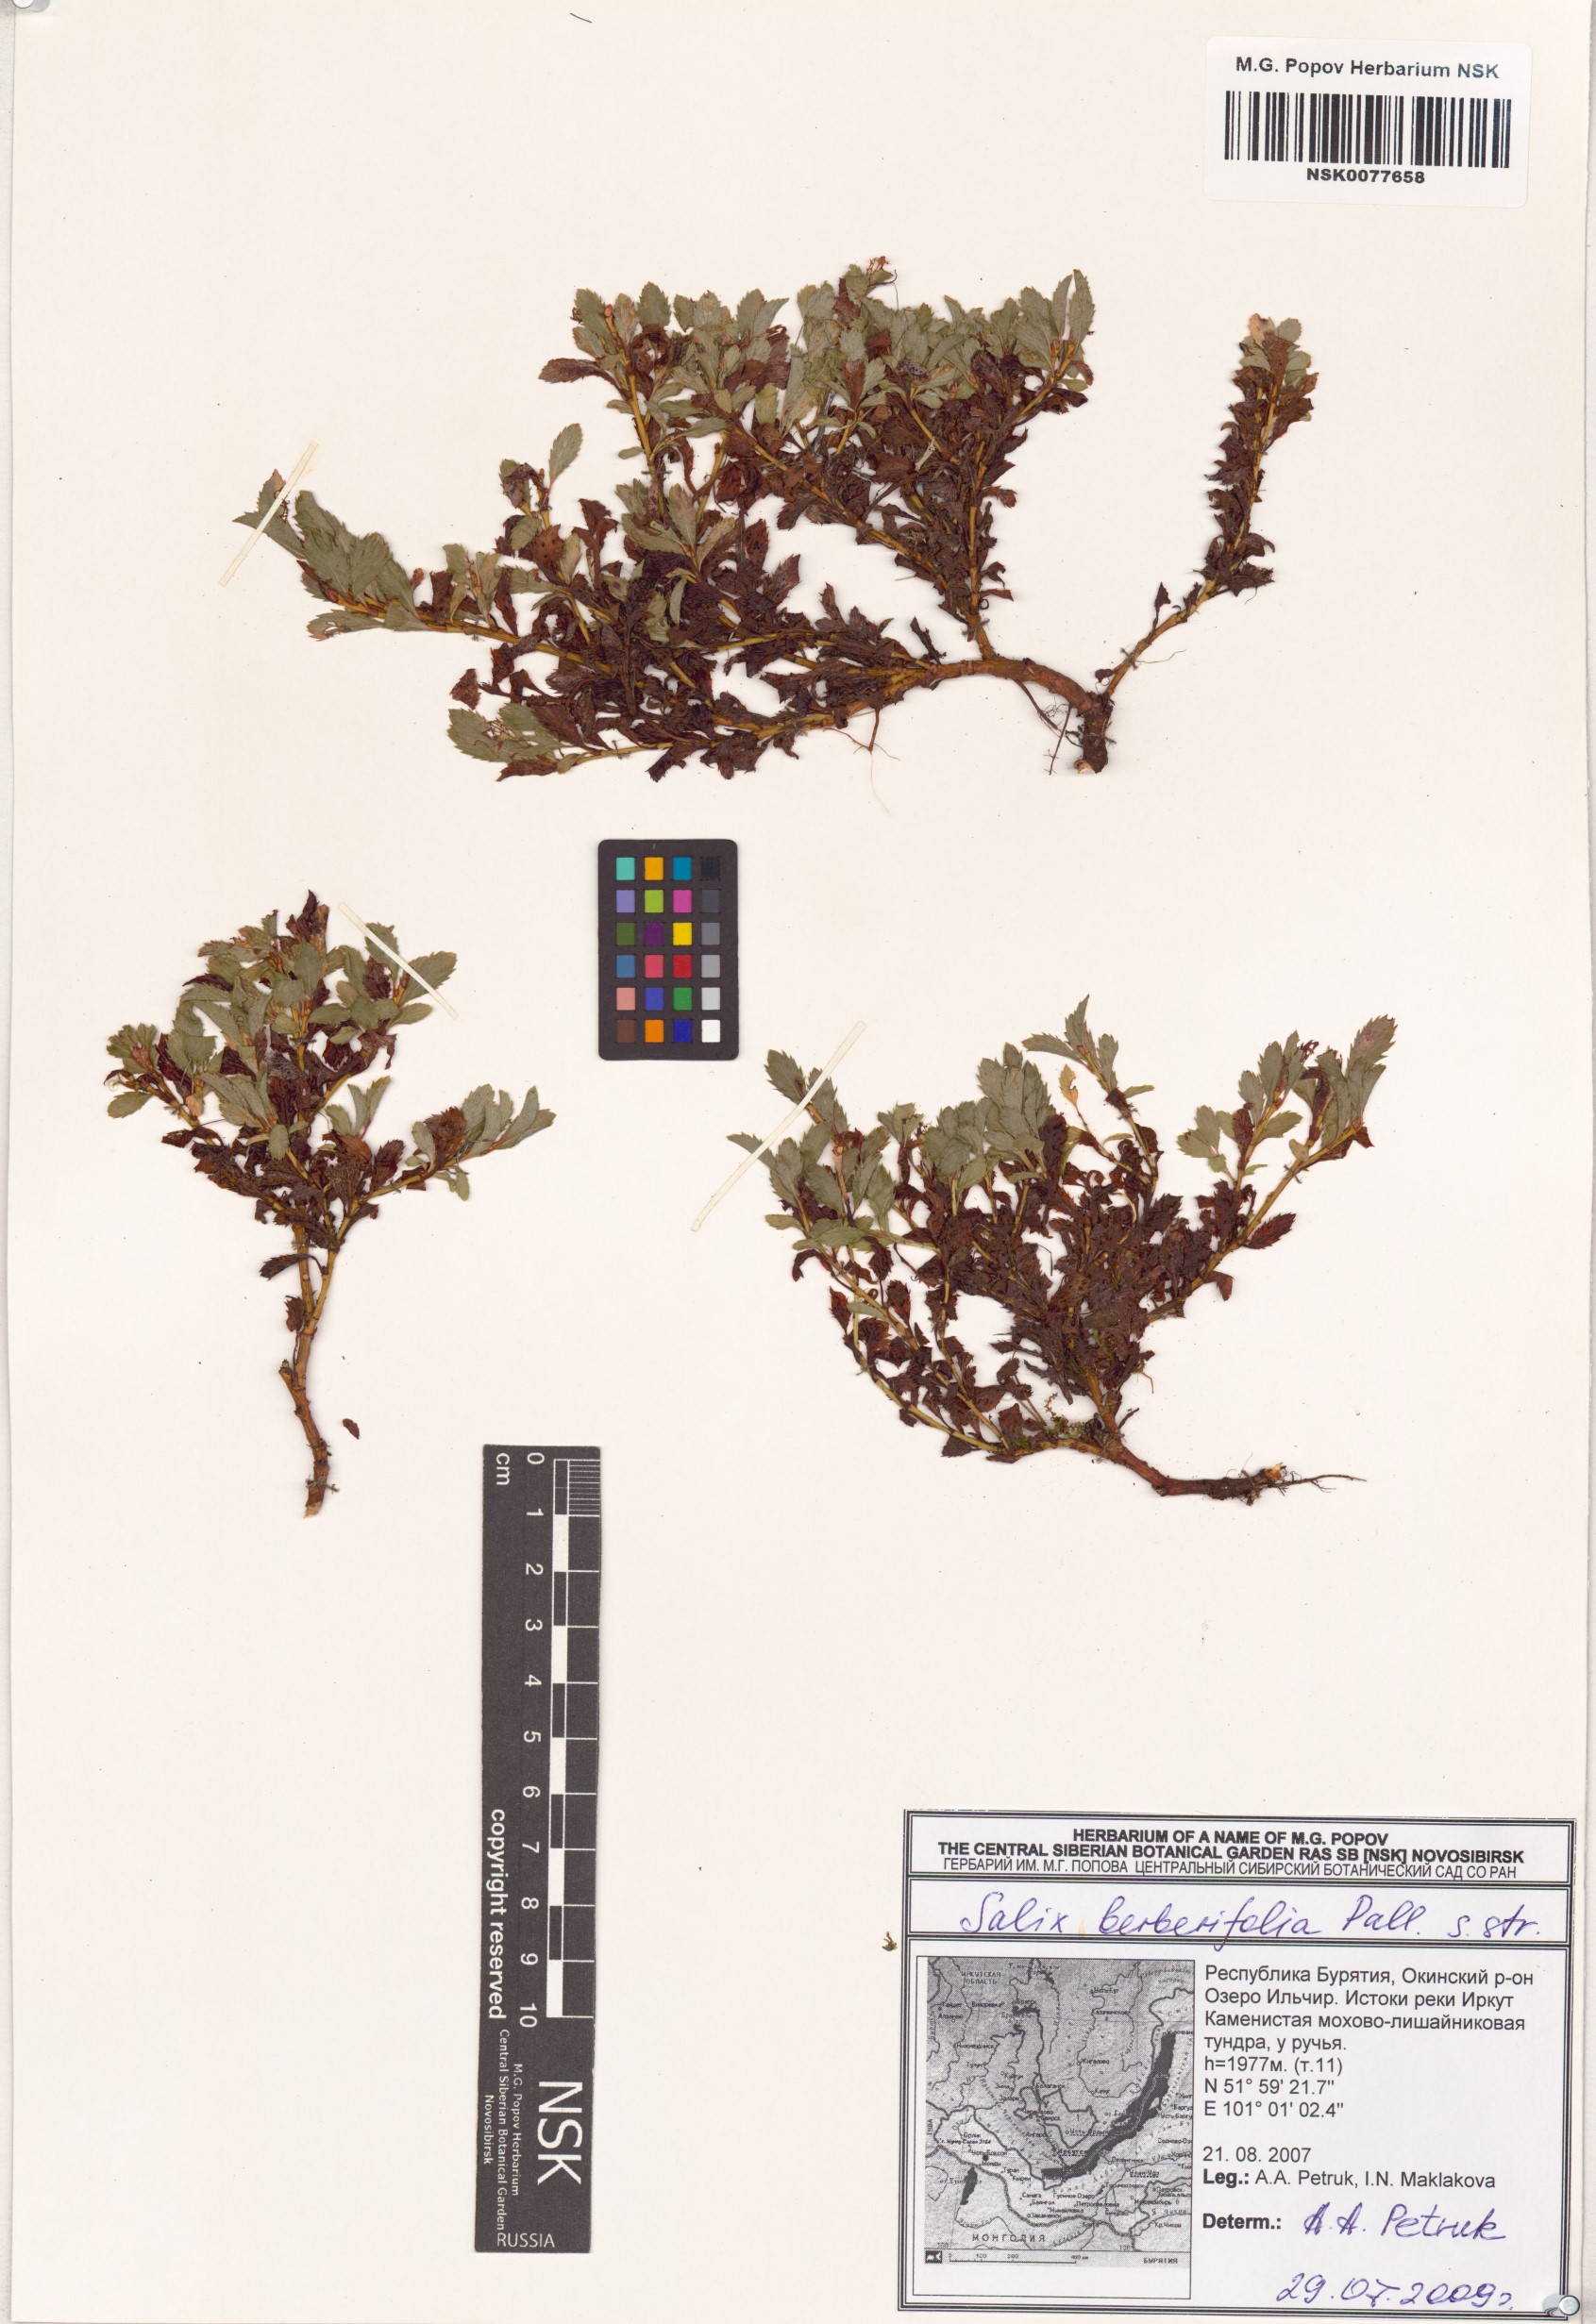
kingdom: Plantae
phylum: Tracheophyta
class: Magnoliopsida
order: Malpighiales
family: Salicaceae
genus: Salix
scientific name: Salix berberifolia
